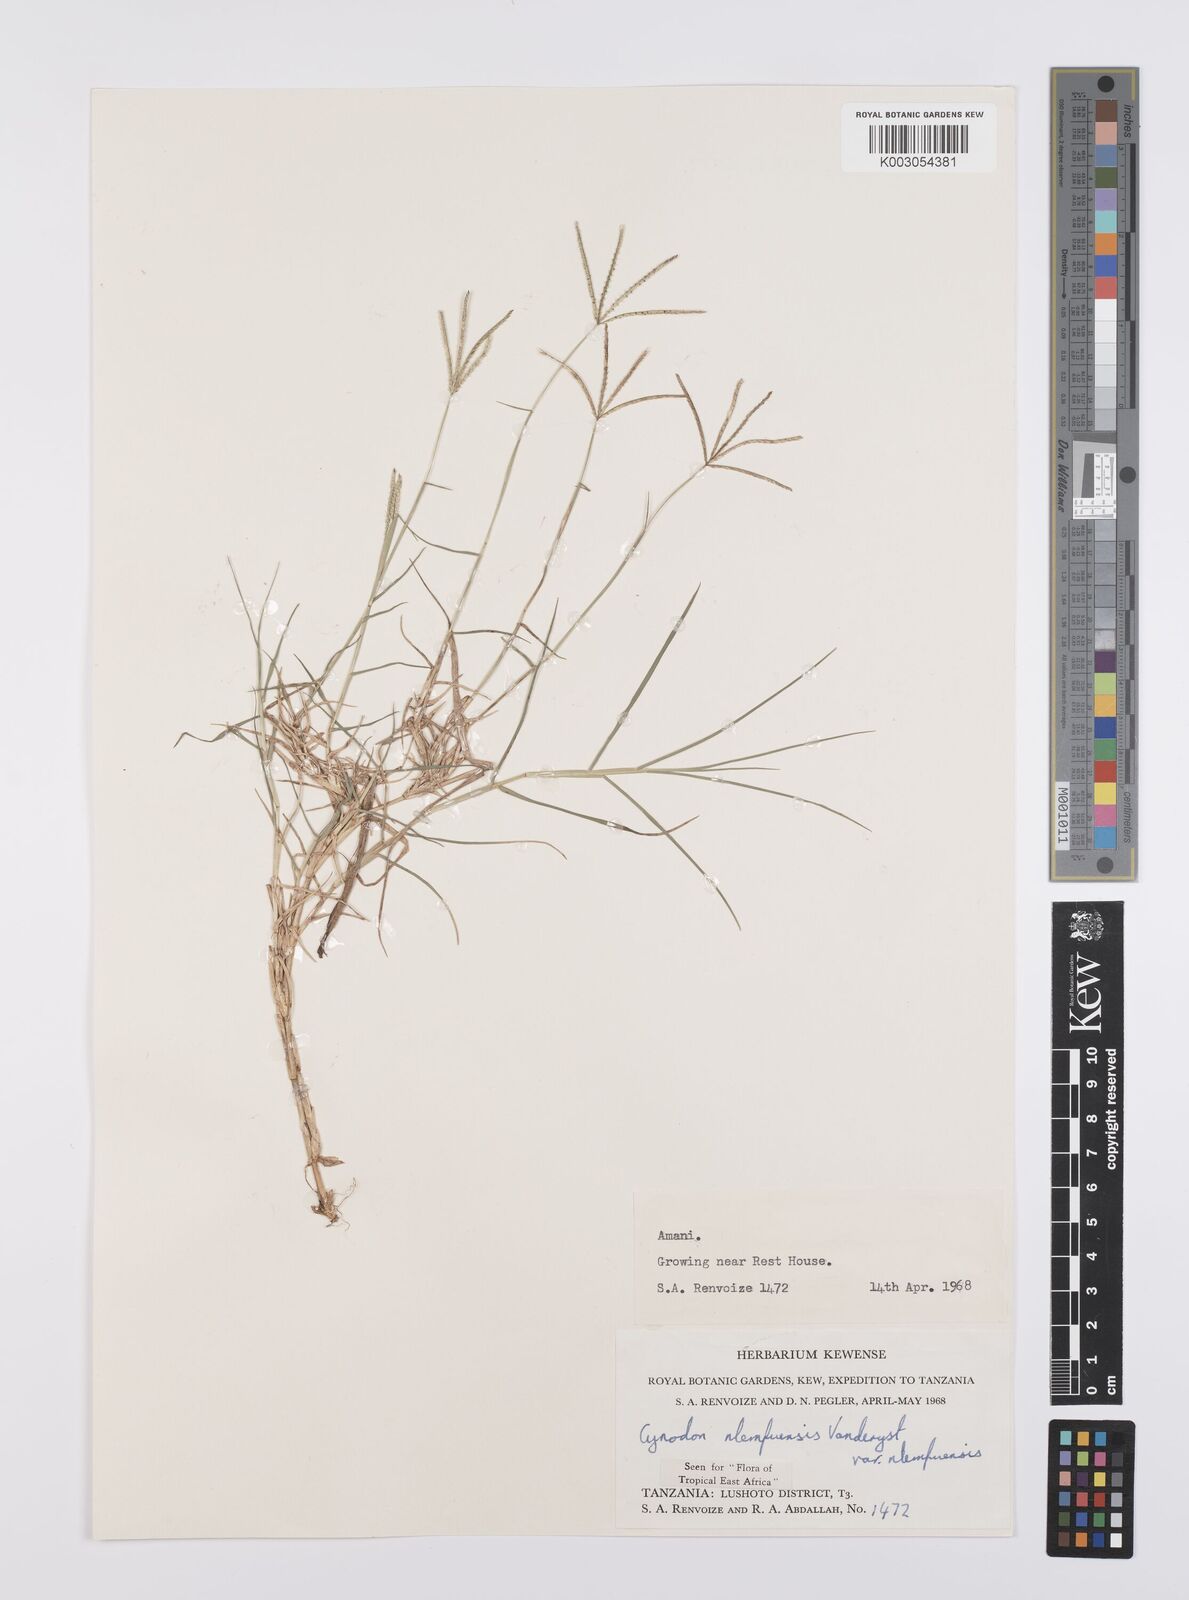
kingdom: Plantae
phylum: Tracheophyta
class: Liliopsida
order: Poales
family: Poaceae
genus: Cynodon
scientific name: Cynodon nlemfuensis
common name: African bermudagrass
